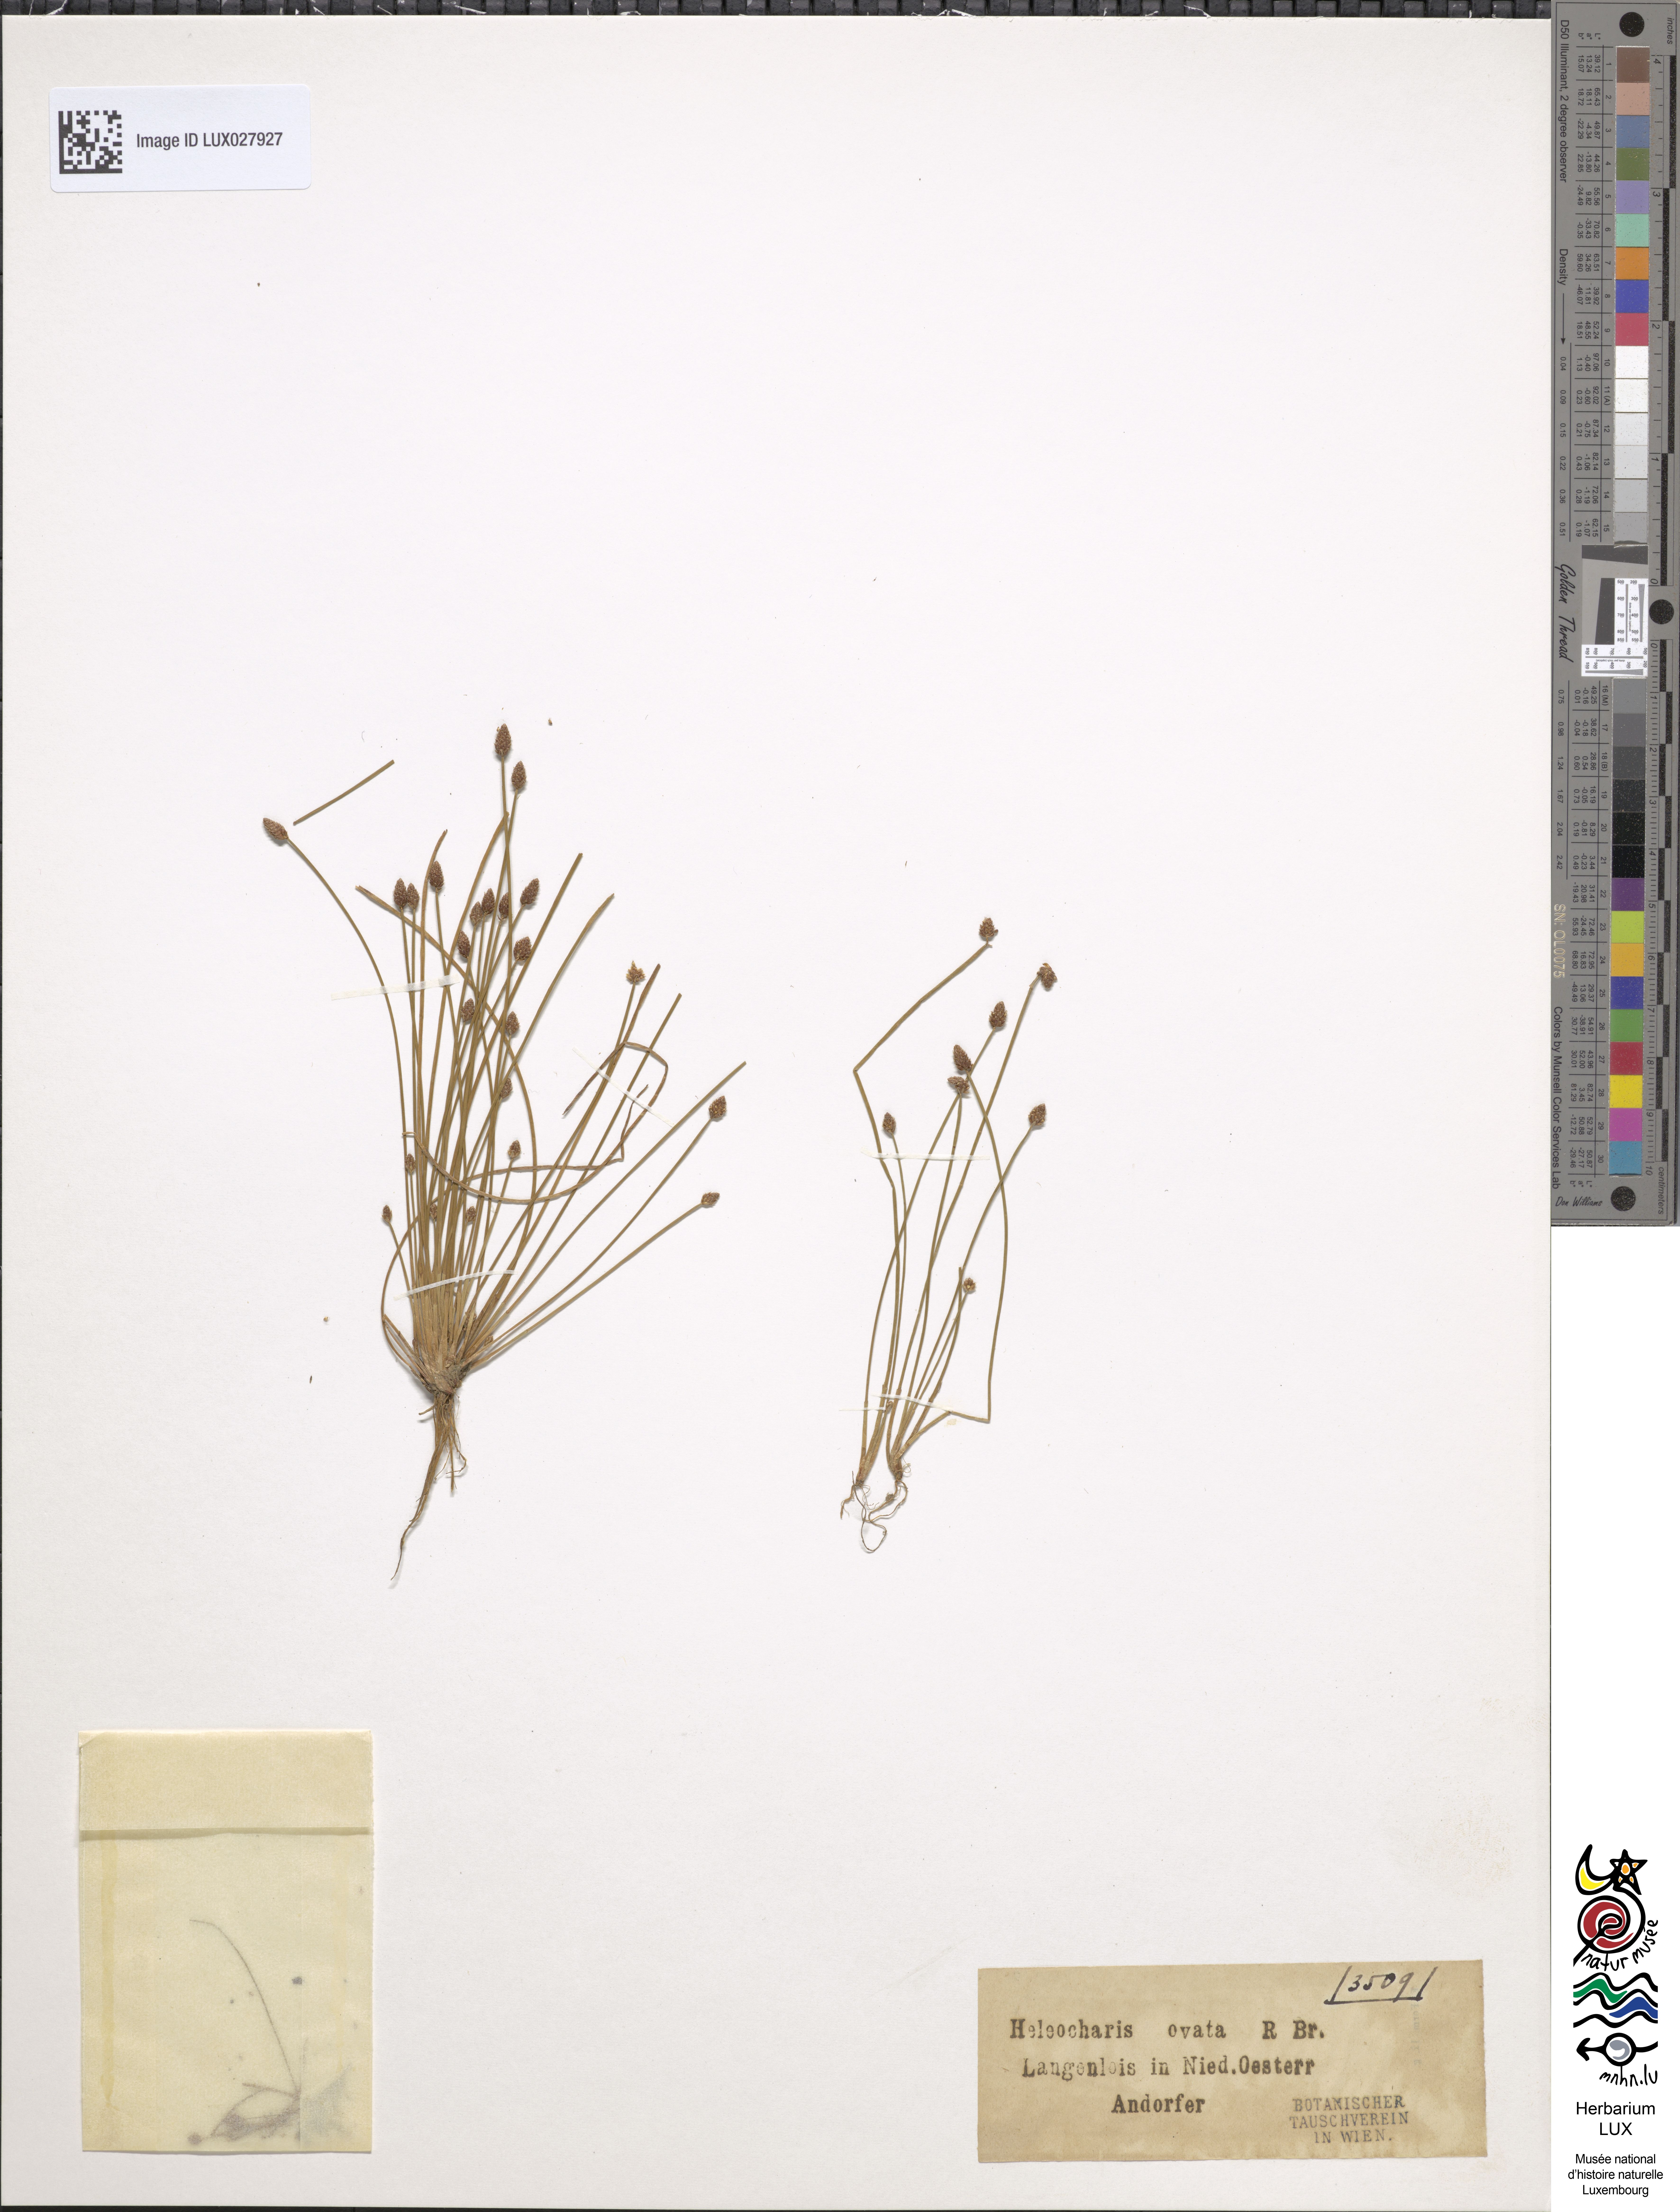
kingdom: Plantae
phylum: Tracheophyta
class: Liliopsida
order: Poales
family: Cyperaceae
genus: Eleocharis
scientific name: Eleocharis ovata
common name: Oval spike-rush
